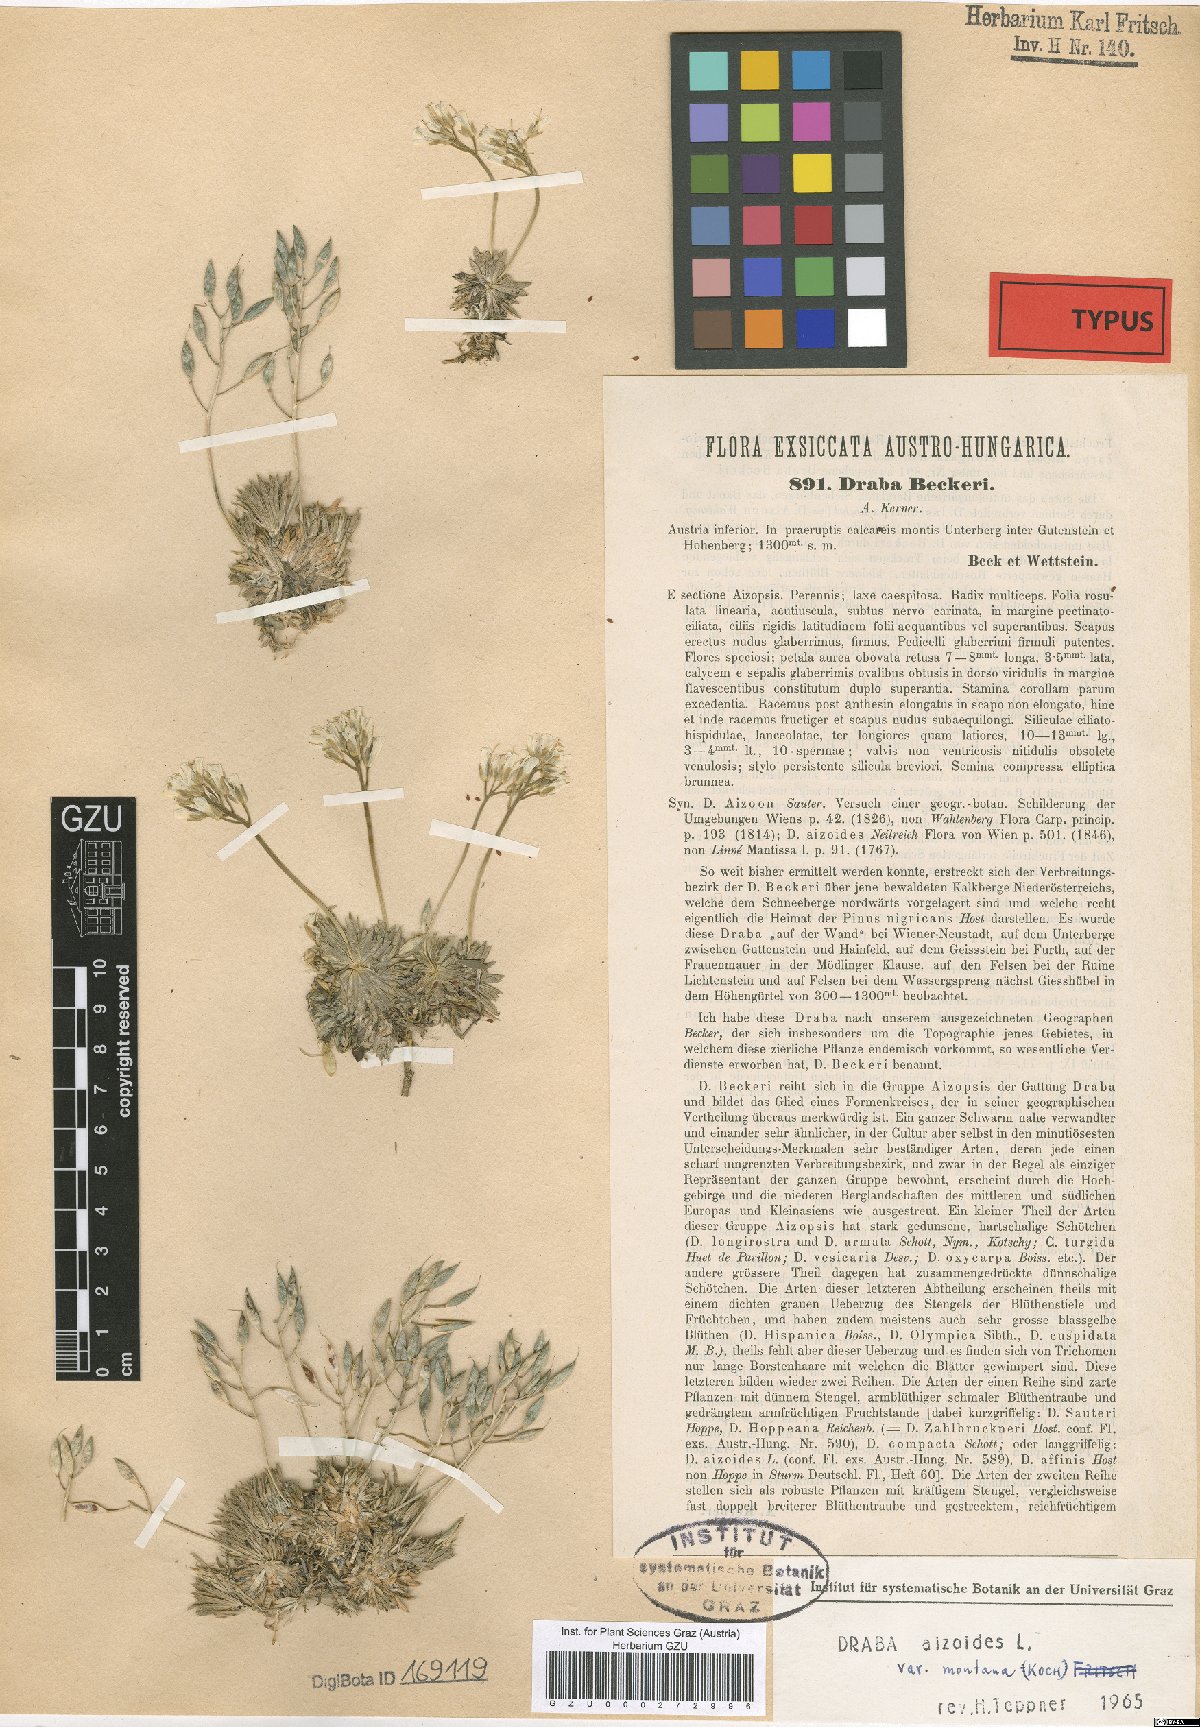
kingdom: Plantae
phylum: Tracheophyta
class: Magnoliopsida
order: Brassicales
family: Brassicaceae
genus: Draba
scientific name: Draba aizoides
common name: Yellow whitlowgrass
